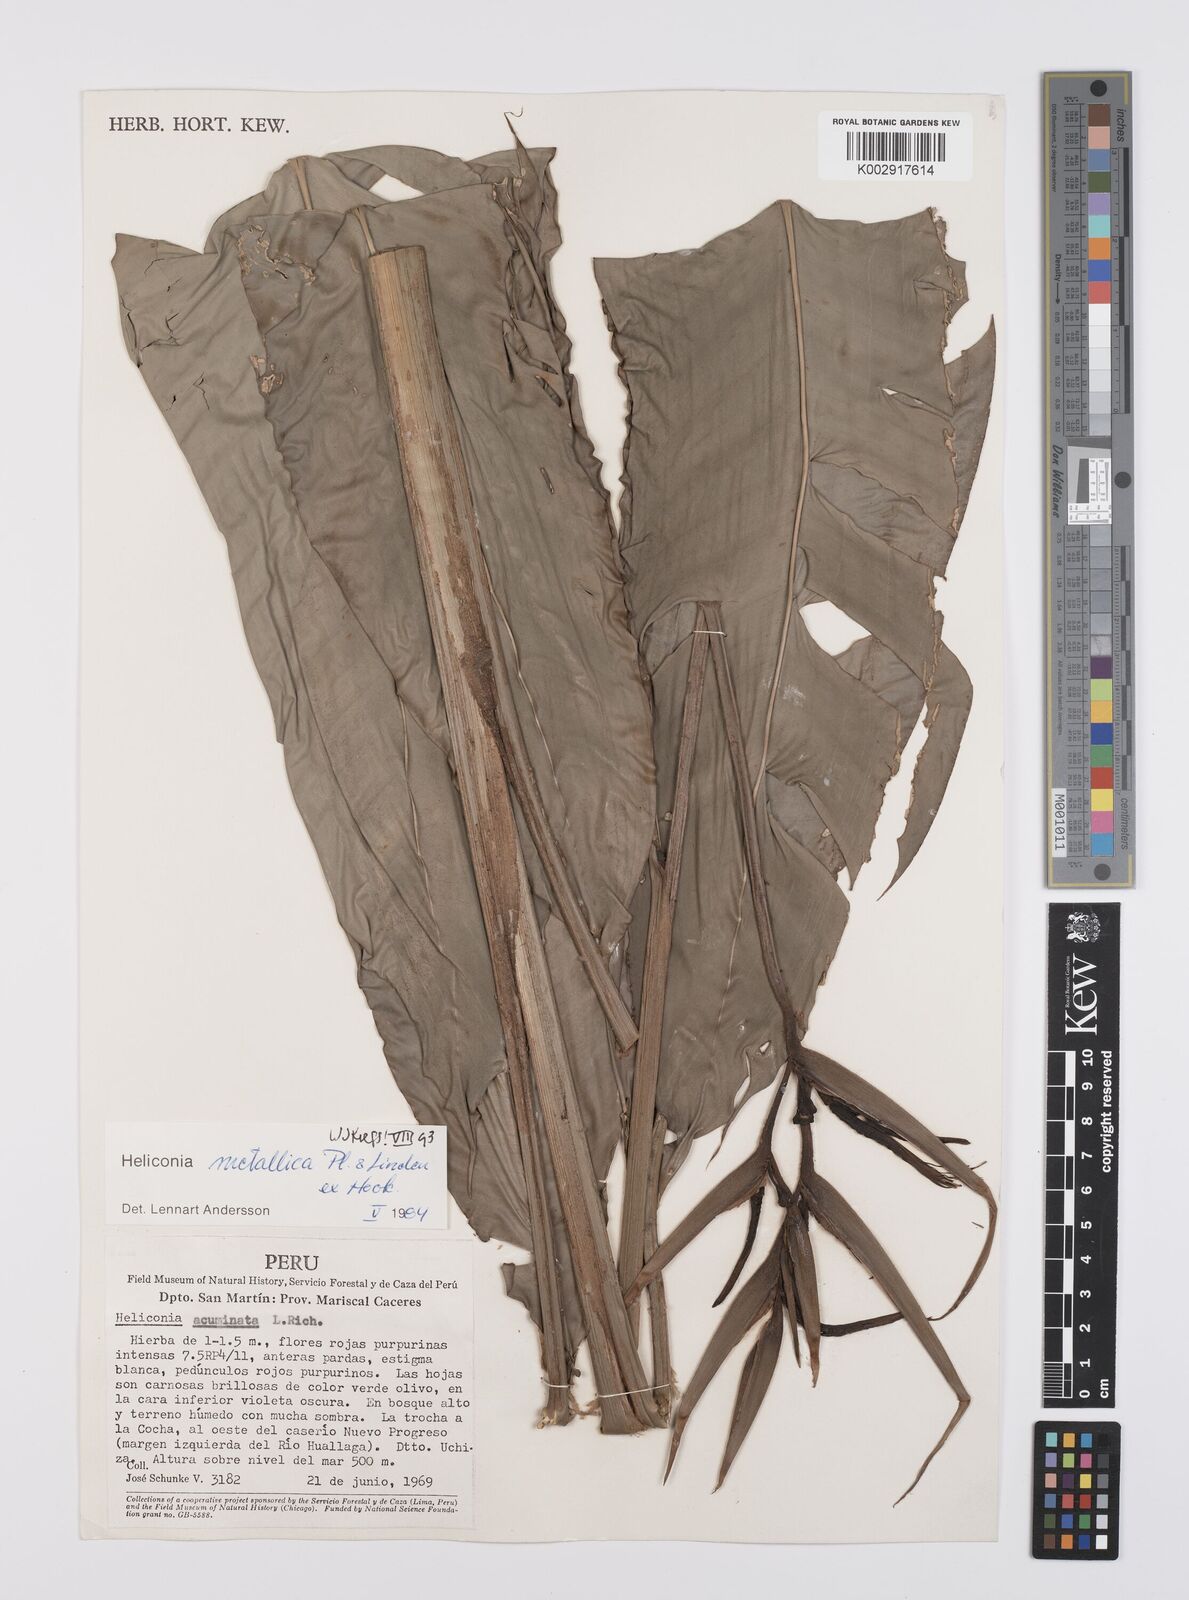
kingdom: Plantae
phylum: Tracheophyta
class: Liliopsida
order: Zingiberales
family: Heliconiaceae
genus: Heliconia
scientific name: Heliconia metallica
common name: Shining bird of paradise
